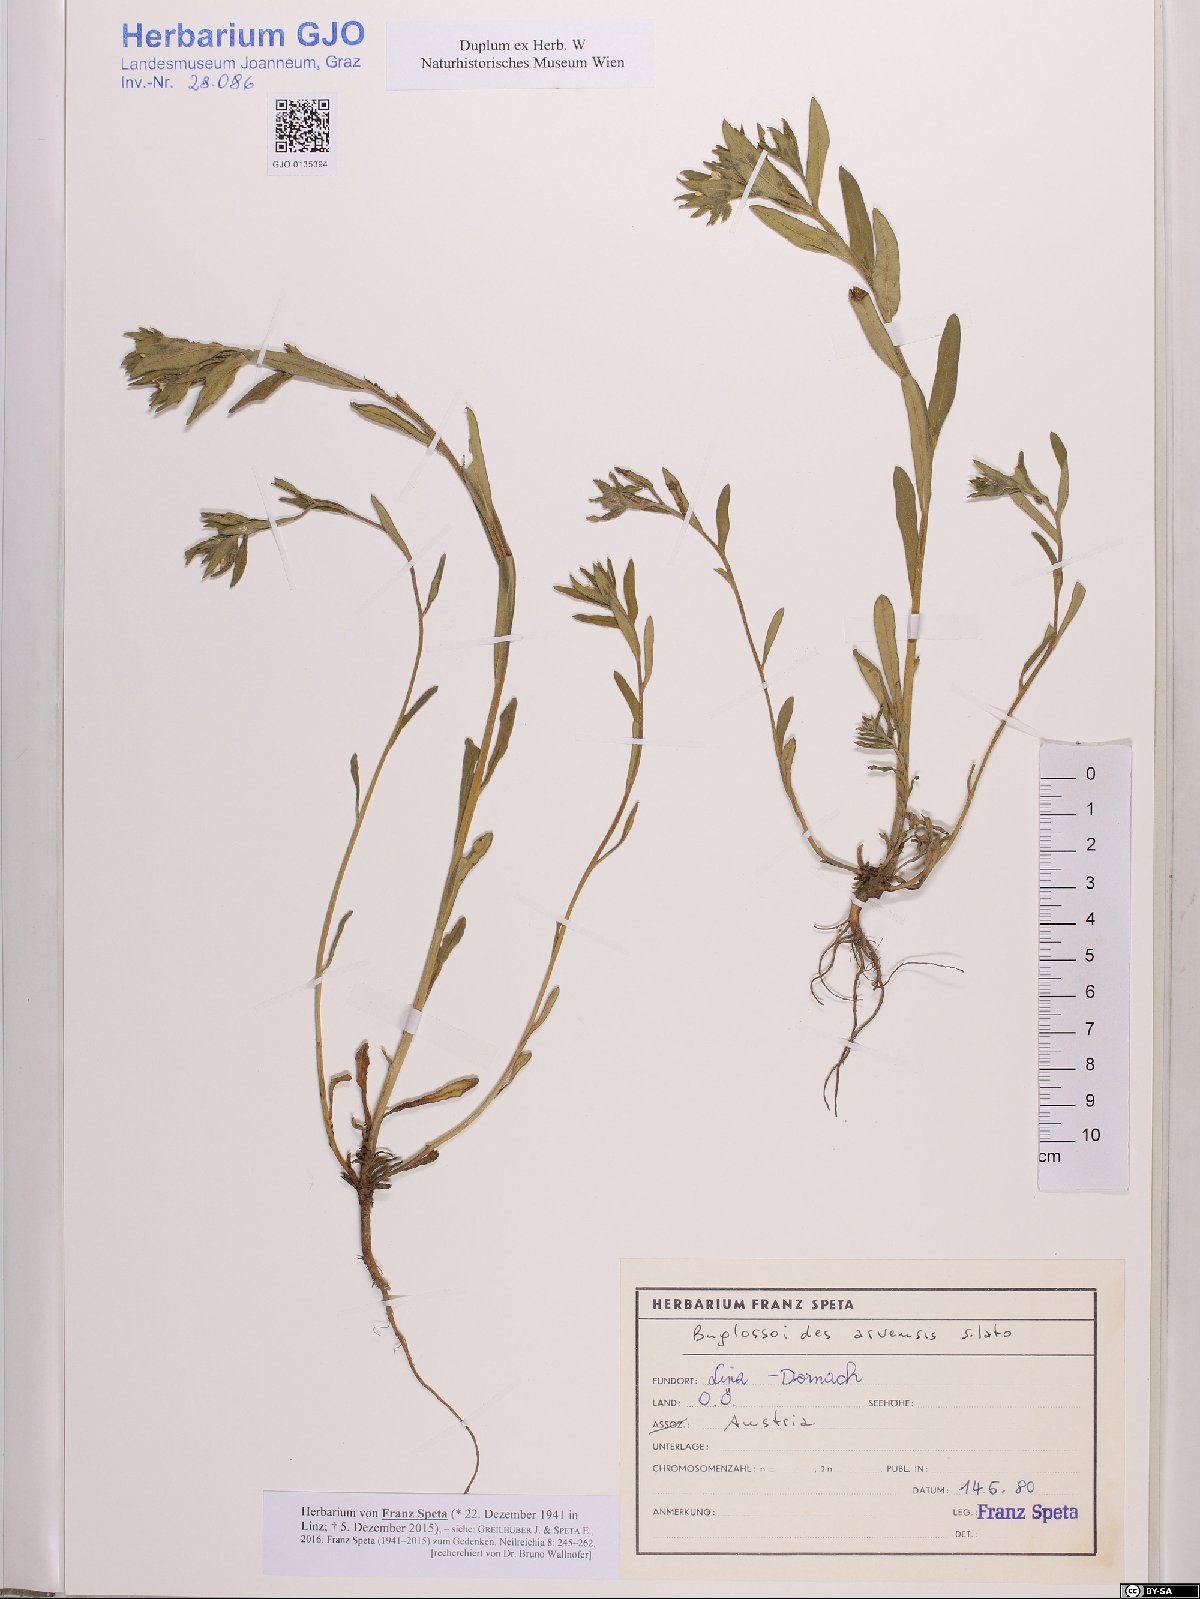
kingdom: Plantae
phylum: Tracheophyta
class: Magnoliopsida
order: Boraginales
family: Boraginaceae
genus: Buglossoides
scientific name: Buglossoides arvensis
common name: Corn gromwell
